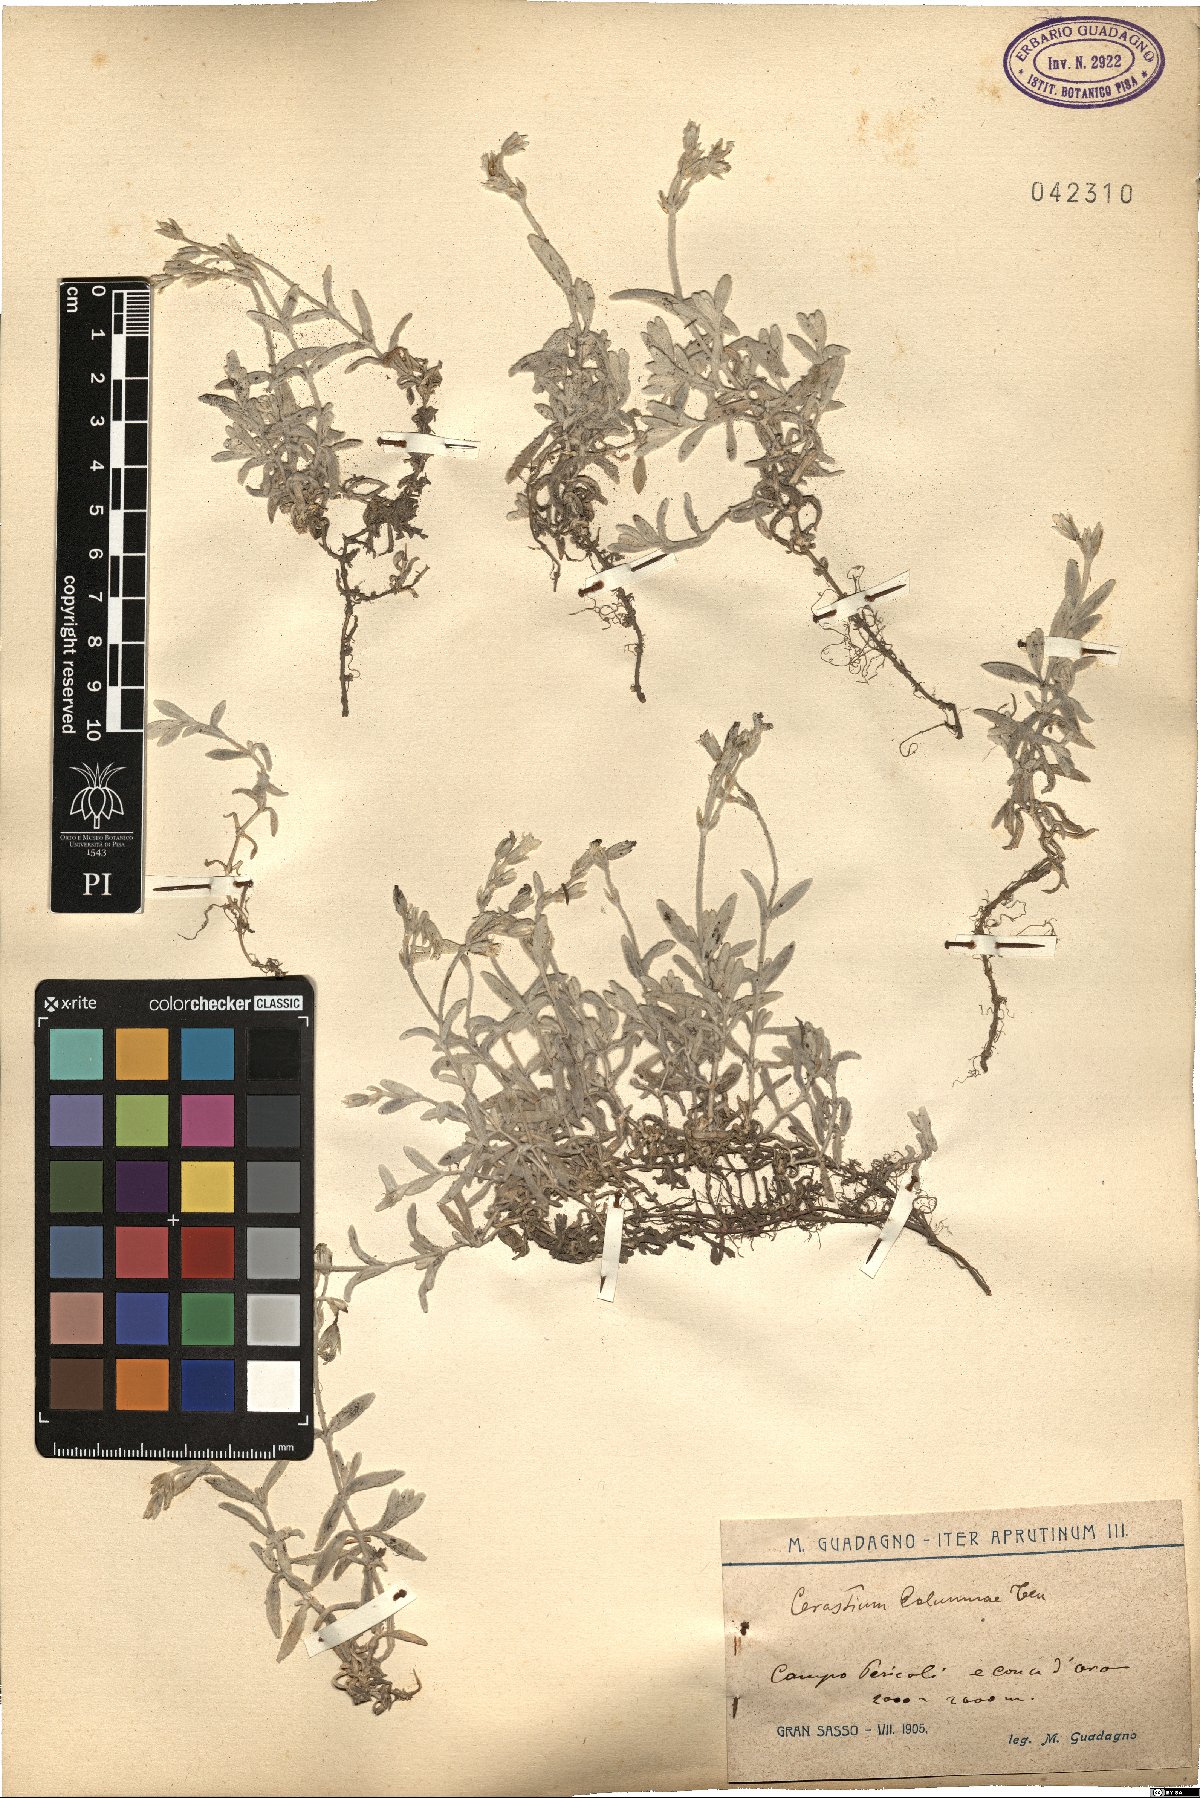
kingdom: Plantae
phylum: Tracheophyta
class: Magnoliopsida
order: Caryophyllales
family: Caryophyllaceae
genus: Cerastium
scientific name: Cerastium tomentosum
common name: Snow-in-summer
